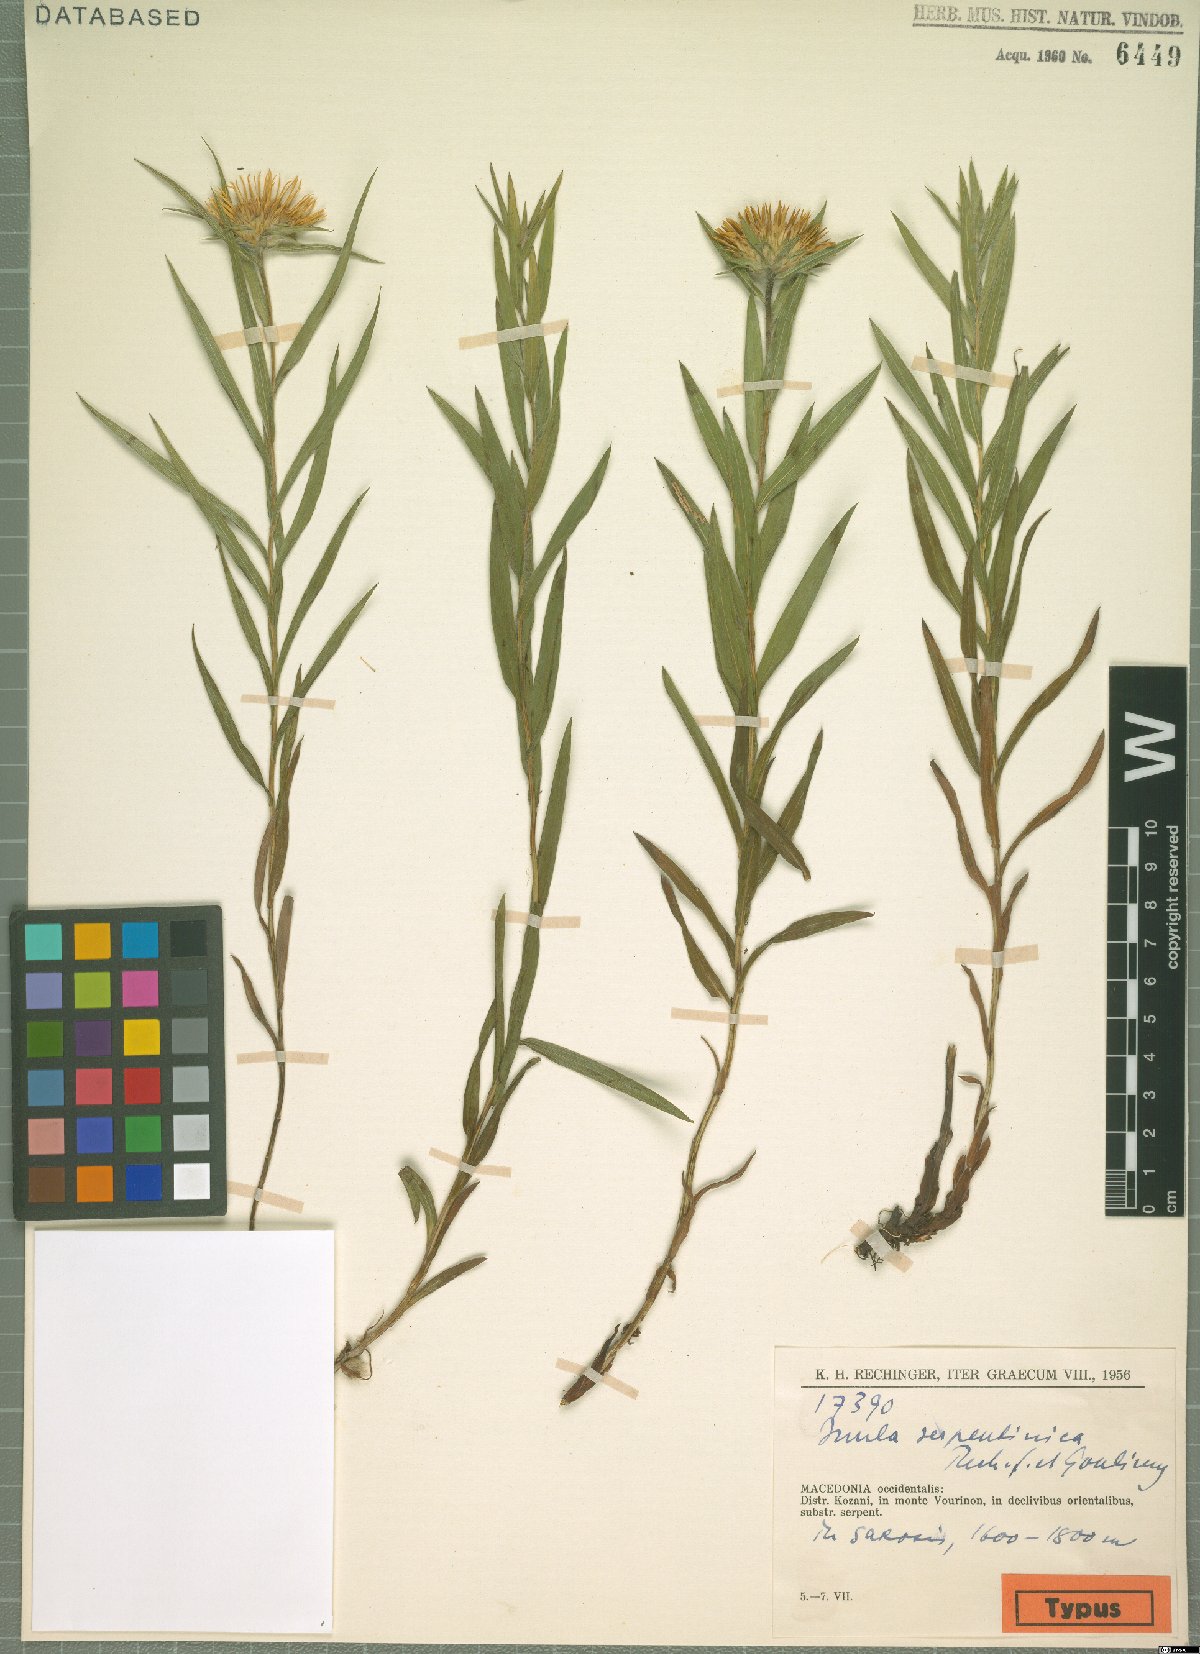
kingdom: Plantae
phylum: Tracheophyta
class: Magnoliopsida
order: Asterales
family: Asteraceae
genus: Pentanema
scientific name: Pentanema ensifolium
